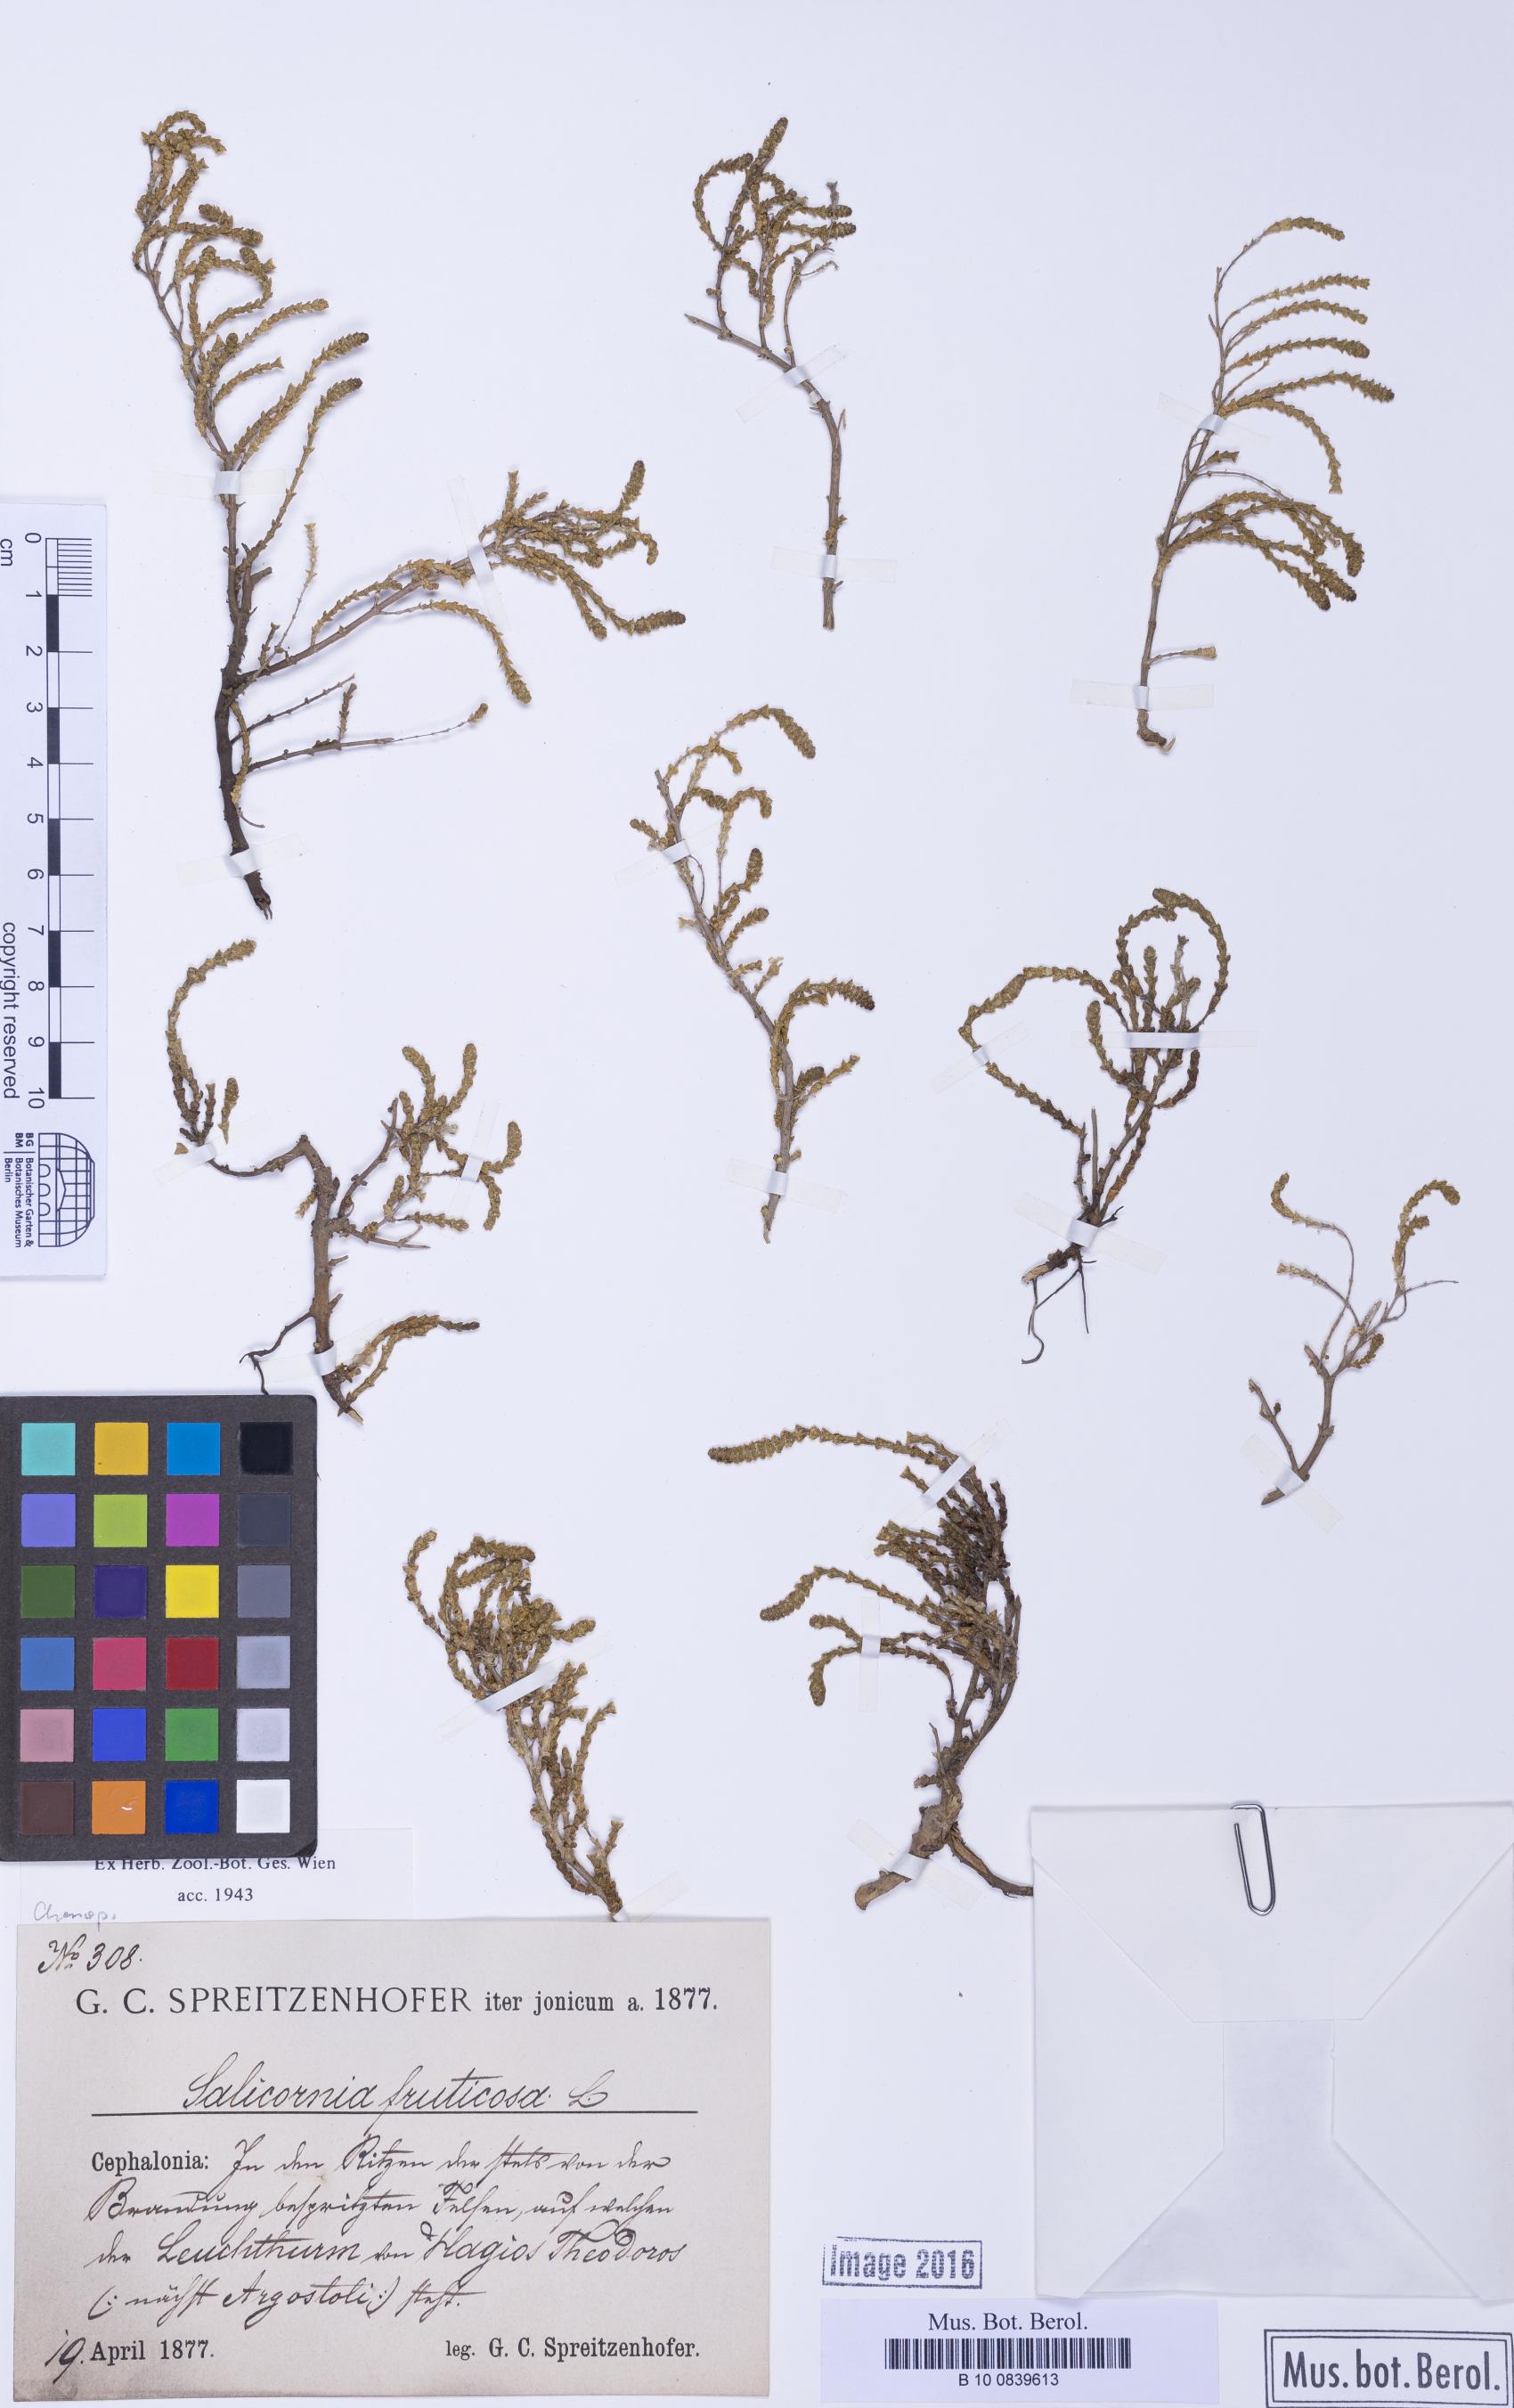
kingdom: Plantae
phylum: Tracheophyta
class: Magnoliopsida
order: Caryophyllales
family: Amaranthaceae
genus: Salicornia
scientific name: Salicornia perennis
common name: Chicken claws
